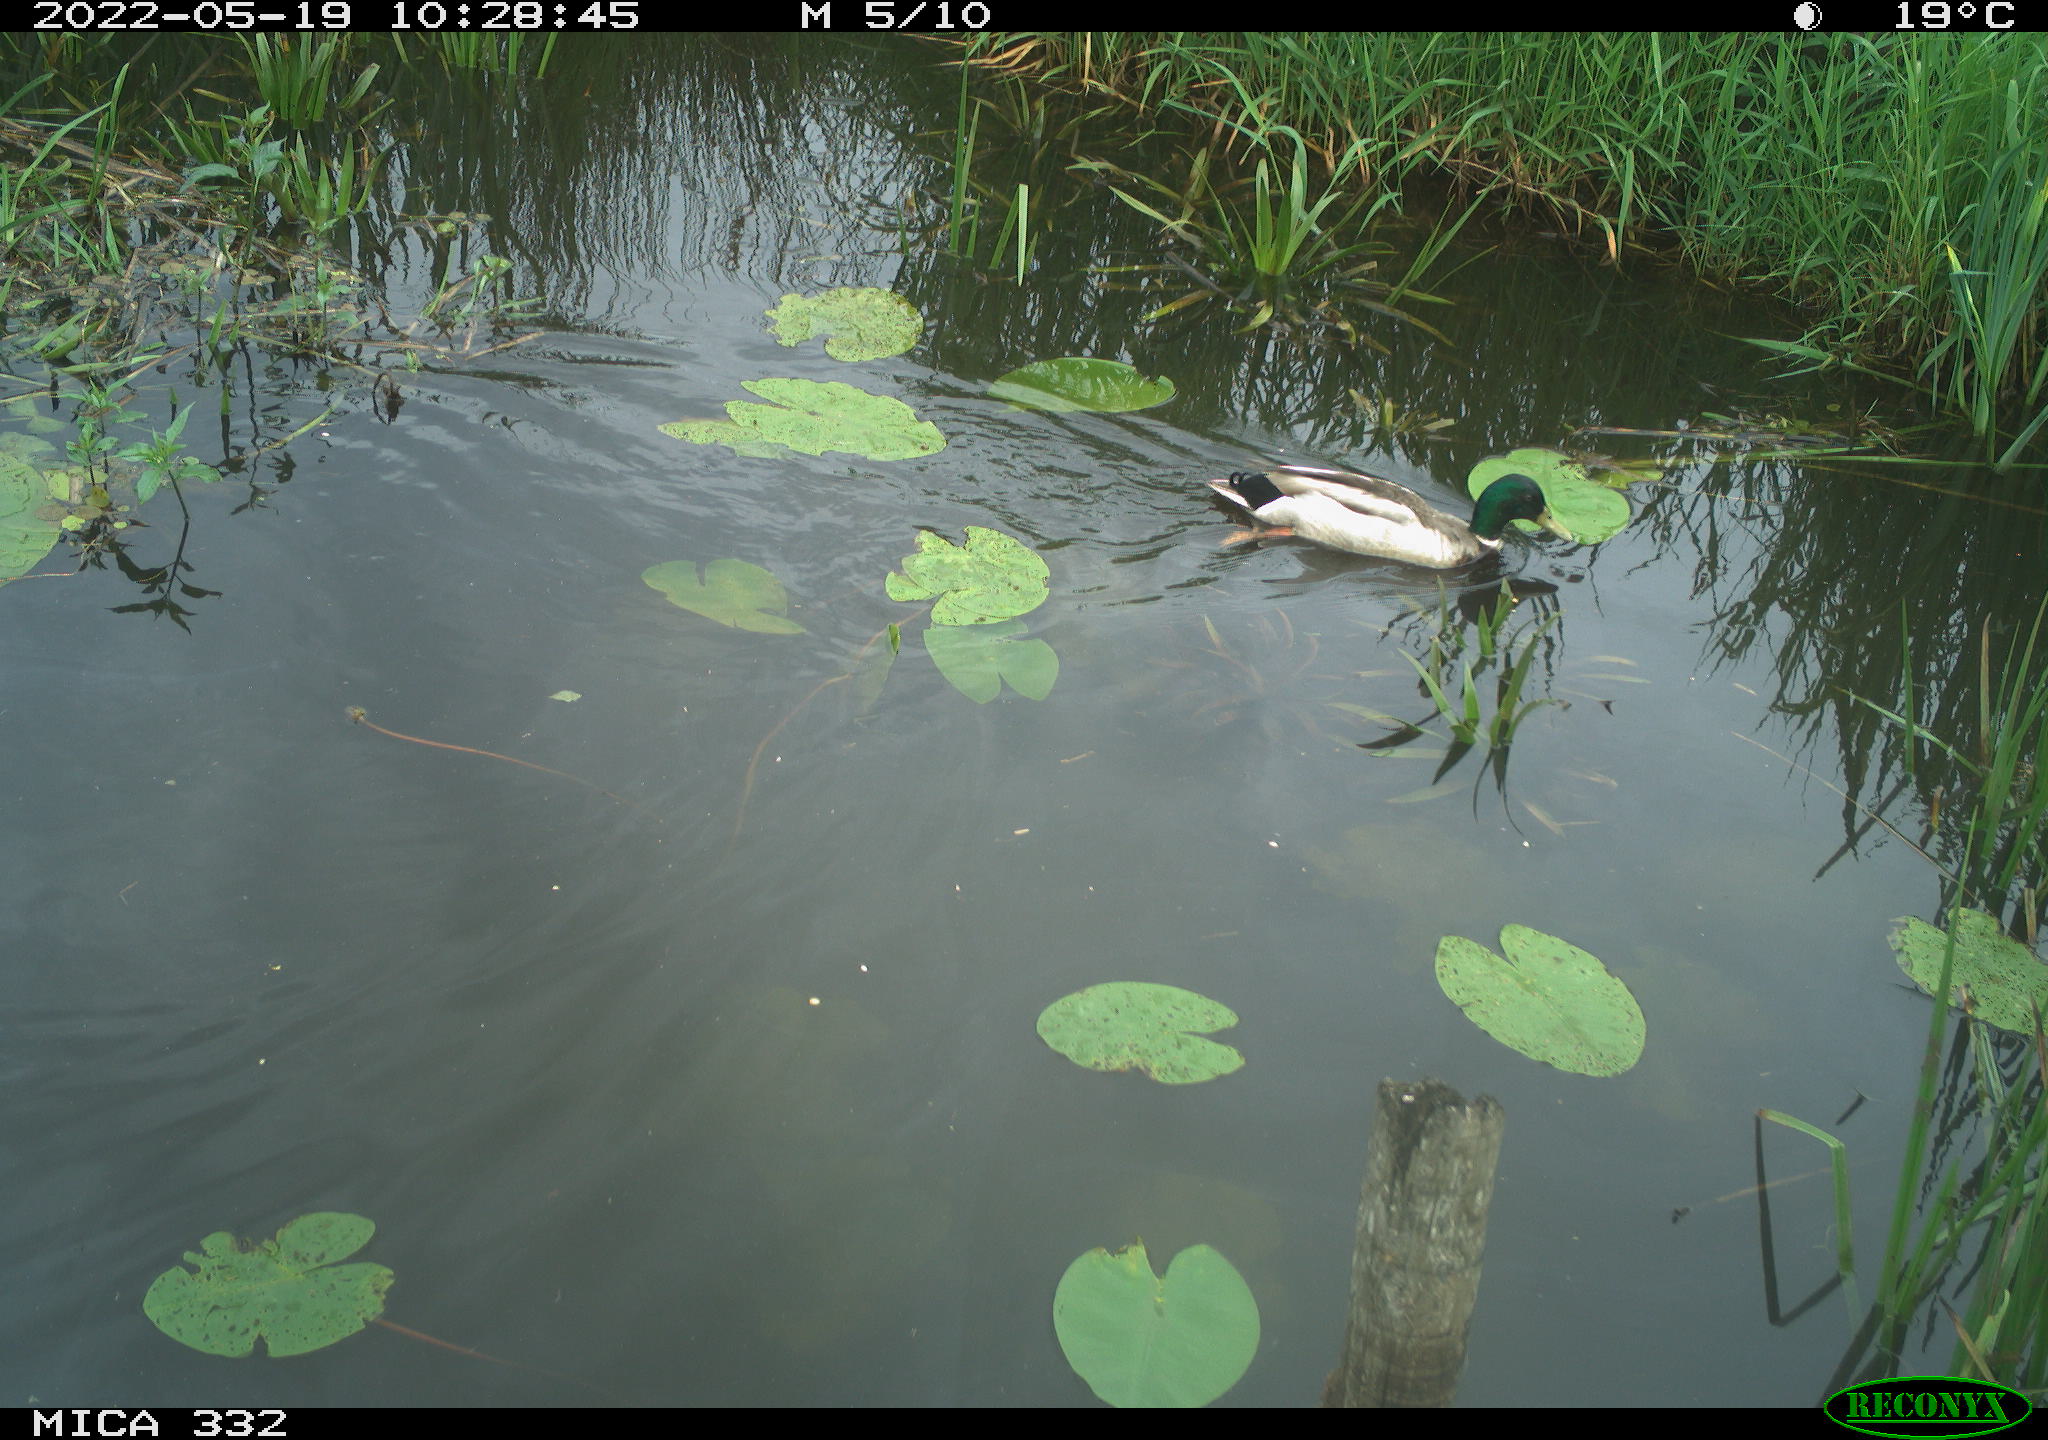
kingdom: Animalia
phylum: Chordata
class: Aves
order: Anseriformes
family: Anatidae
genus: Anas
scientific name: Anas platyrhynchos
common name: Mallard
